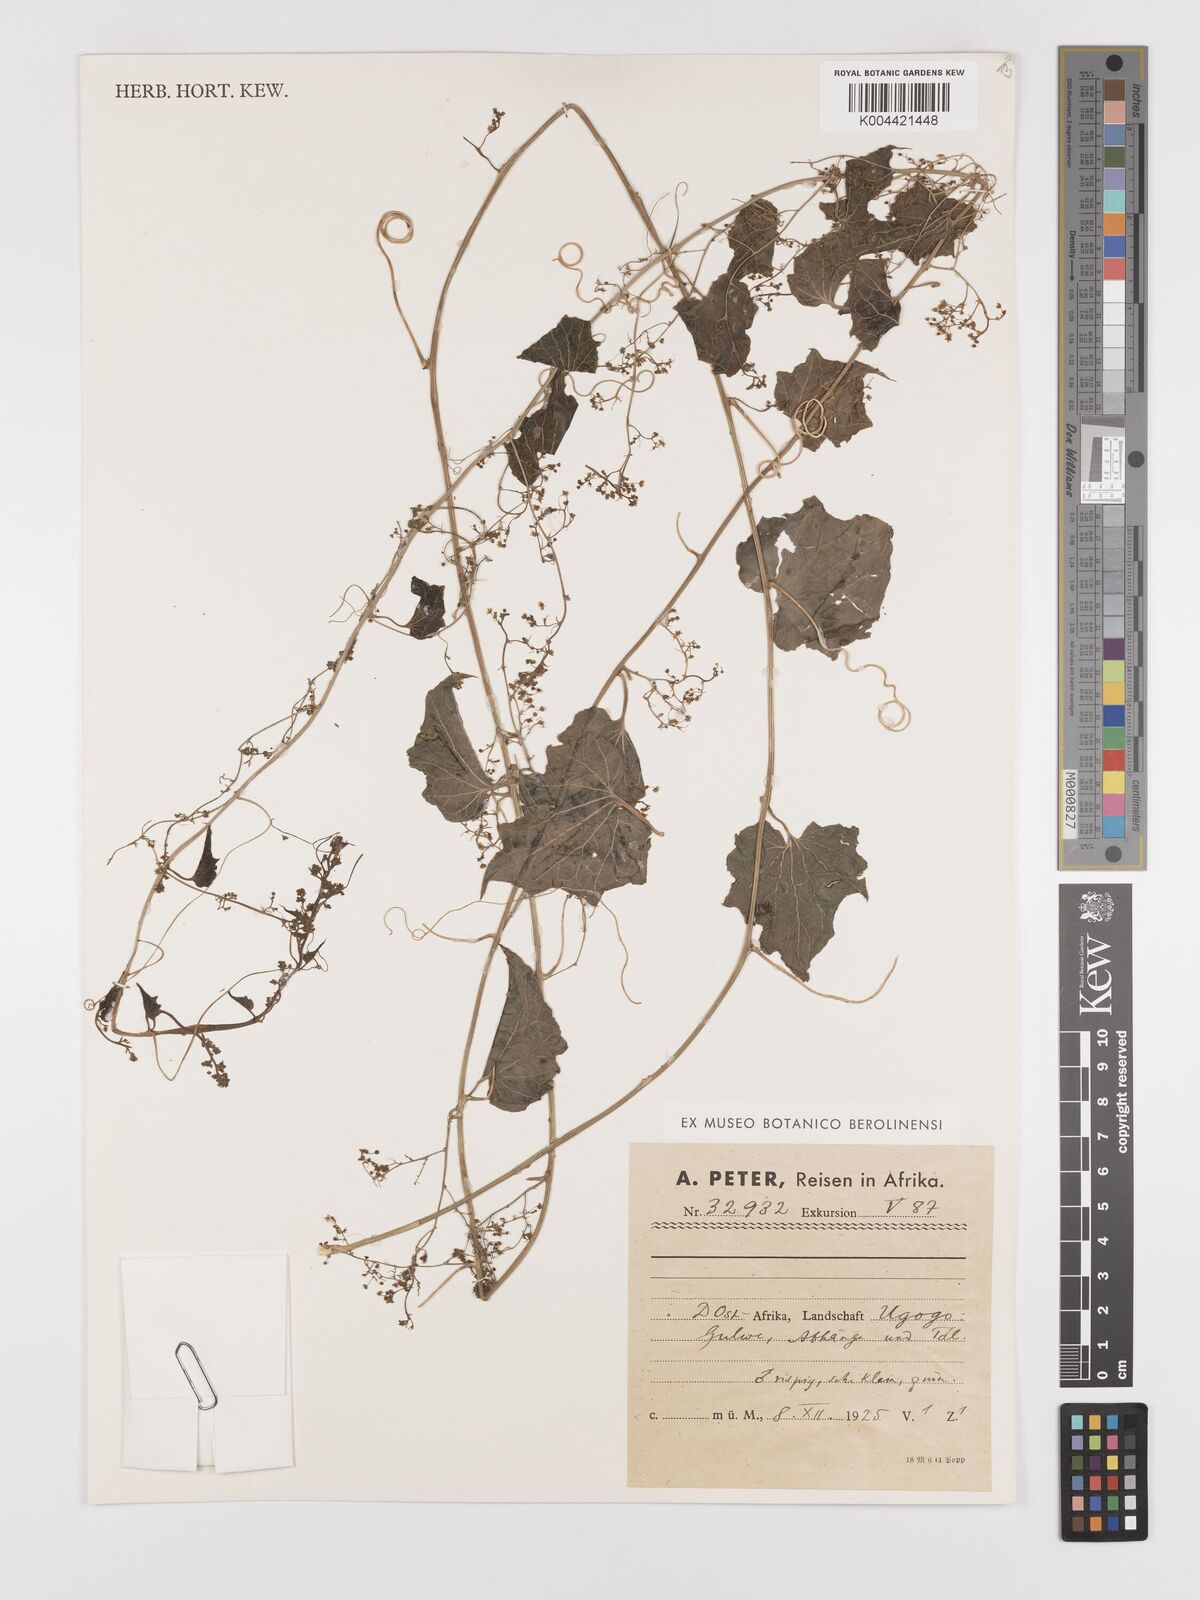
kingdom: Plantae
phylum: Tracheophyta
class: Magnoliopsida
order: Cucurbitales
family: Cucurbitaceae
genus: Cyclantheropsis
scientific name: Cyclantheropsis parviflora
